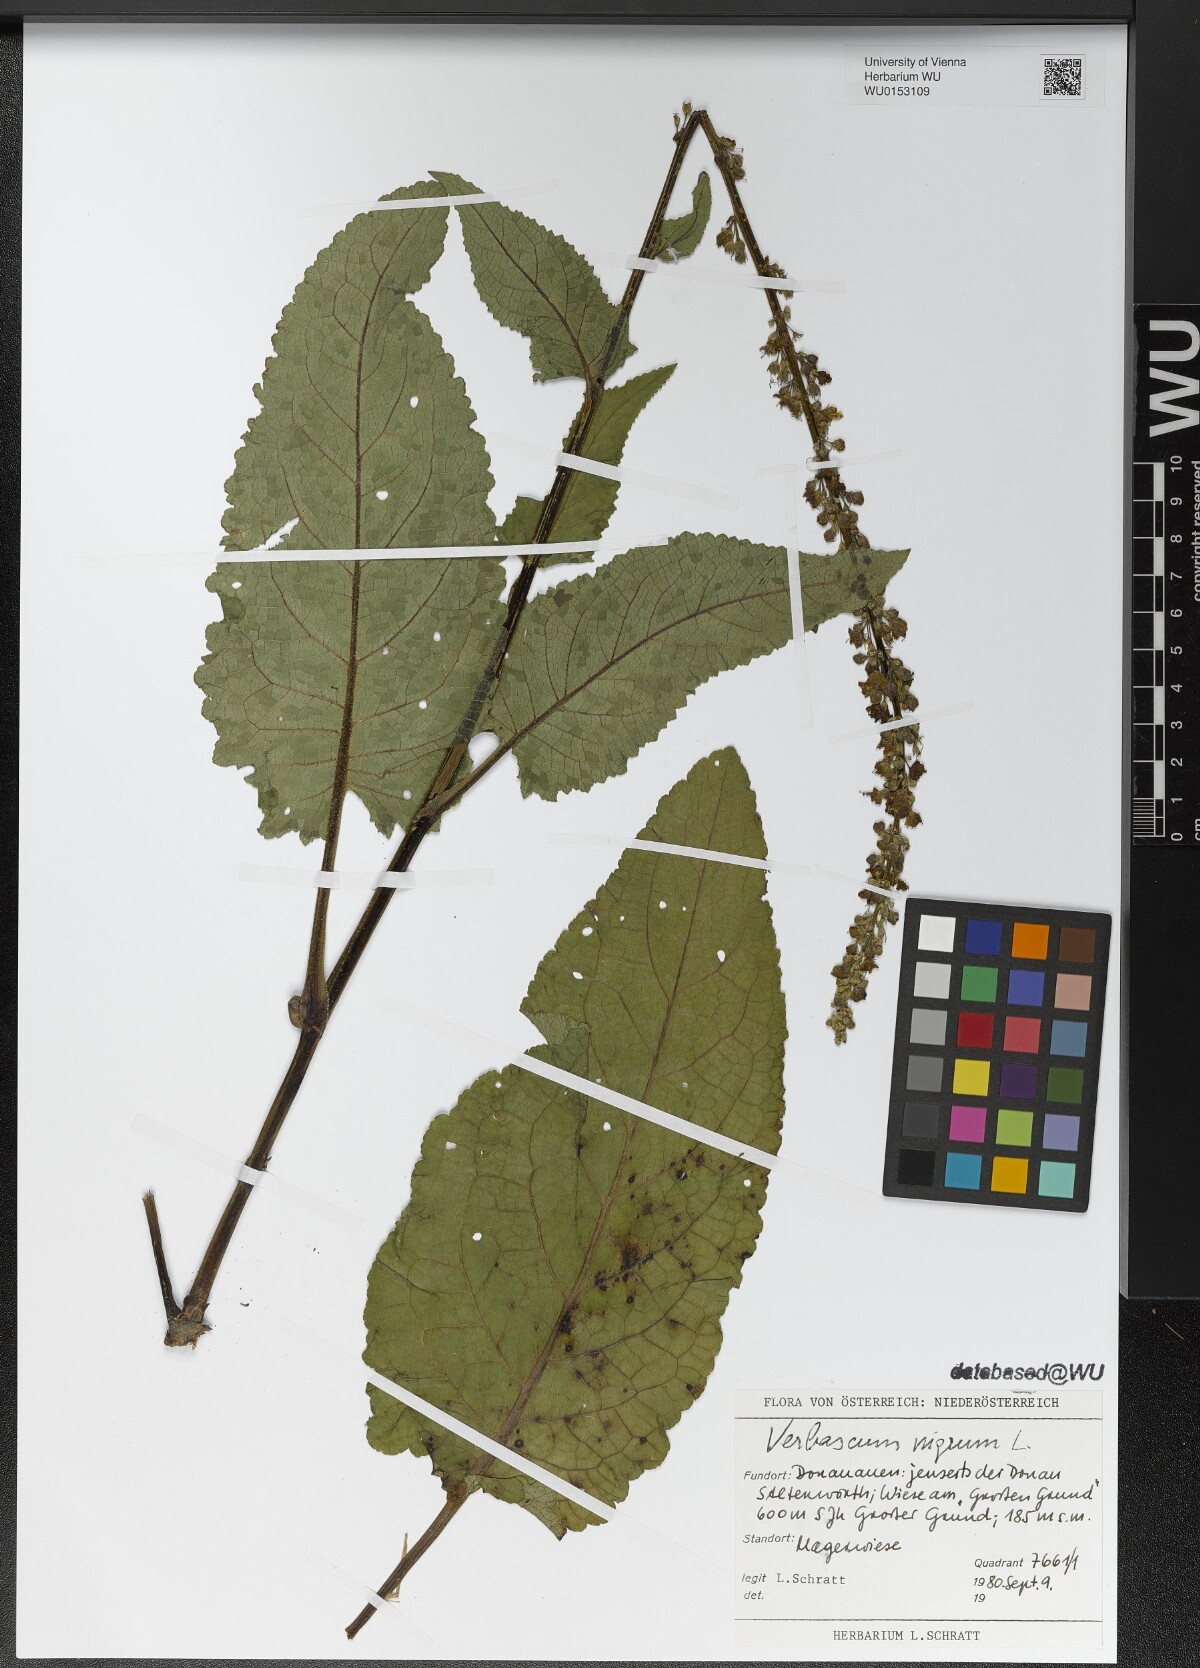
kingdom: Plantae
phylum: Tracheophyta
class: Magnoliopsida
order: Lamiales
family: Scrophulariaceae
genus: Verbascum
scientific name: Verbascum nigrum
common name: Dark mullein
